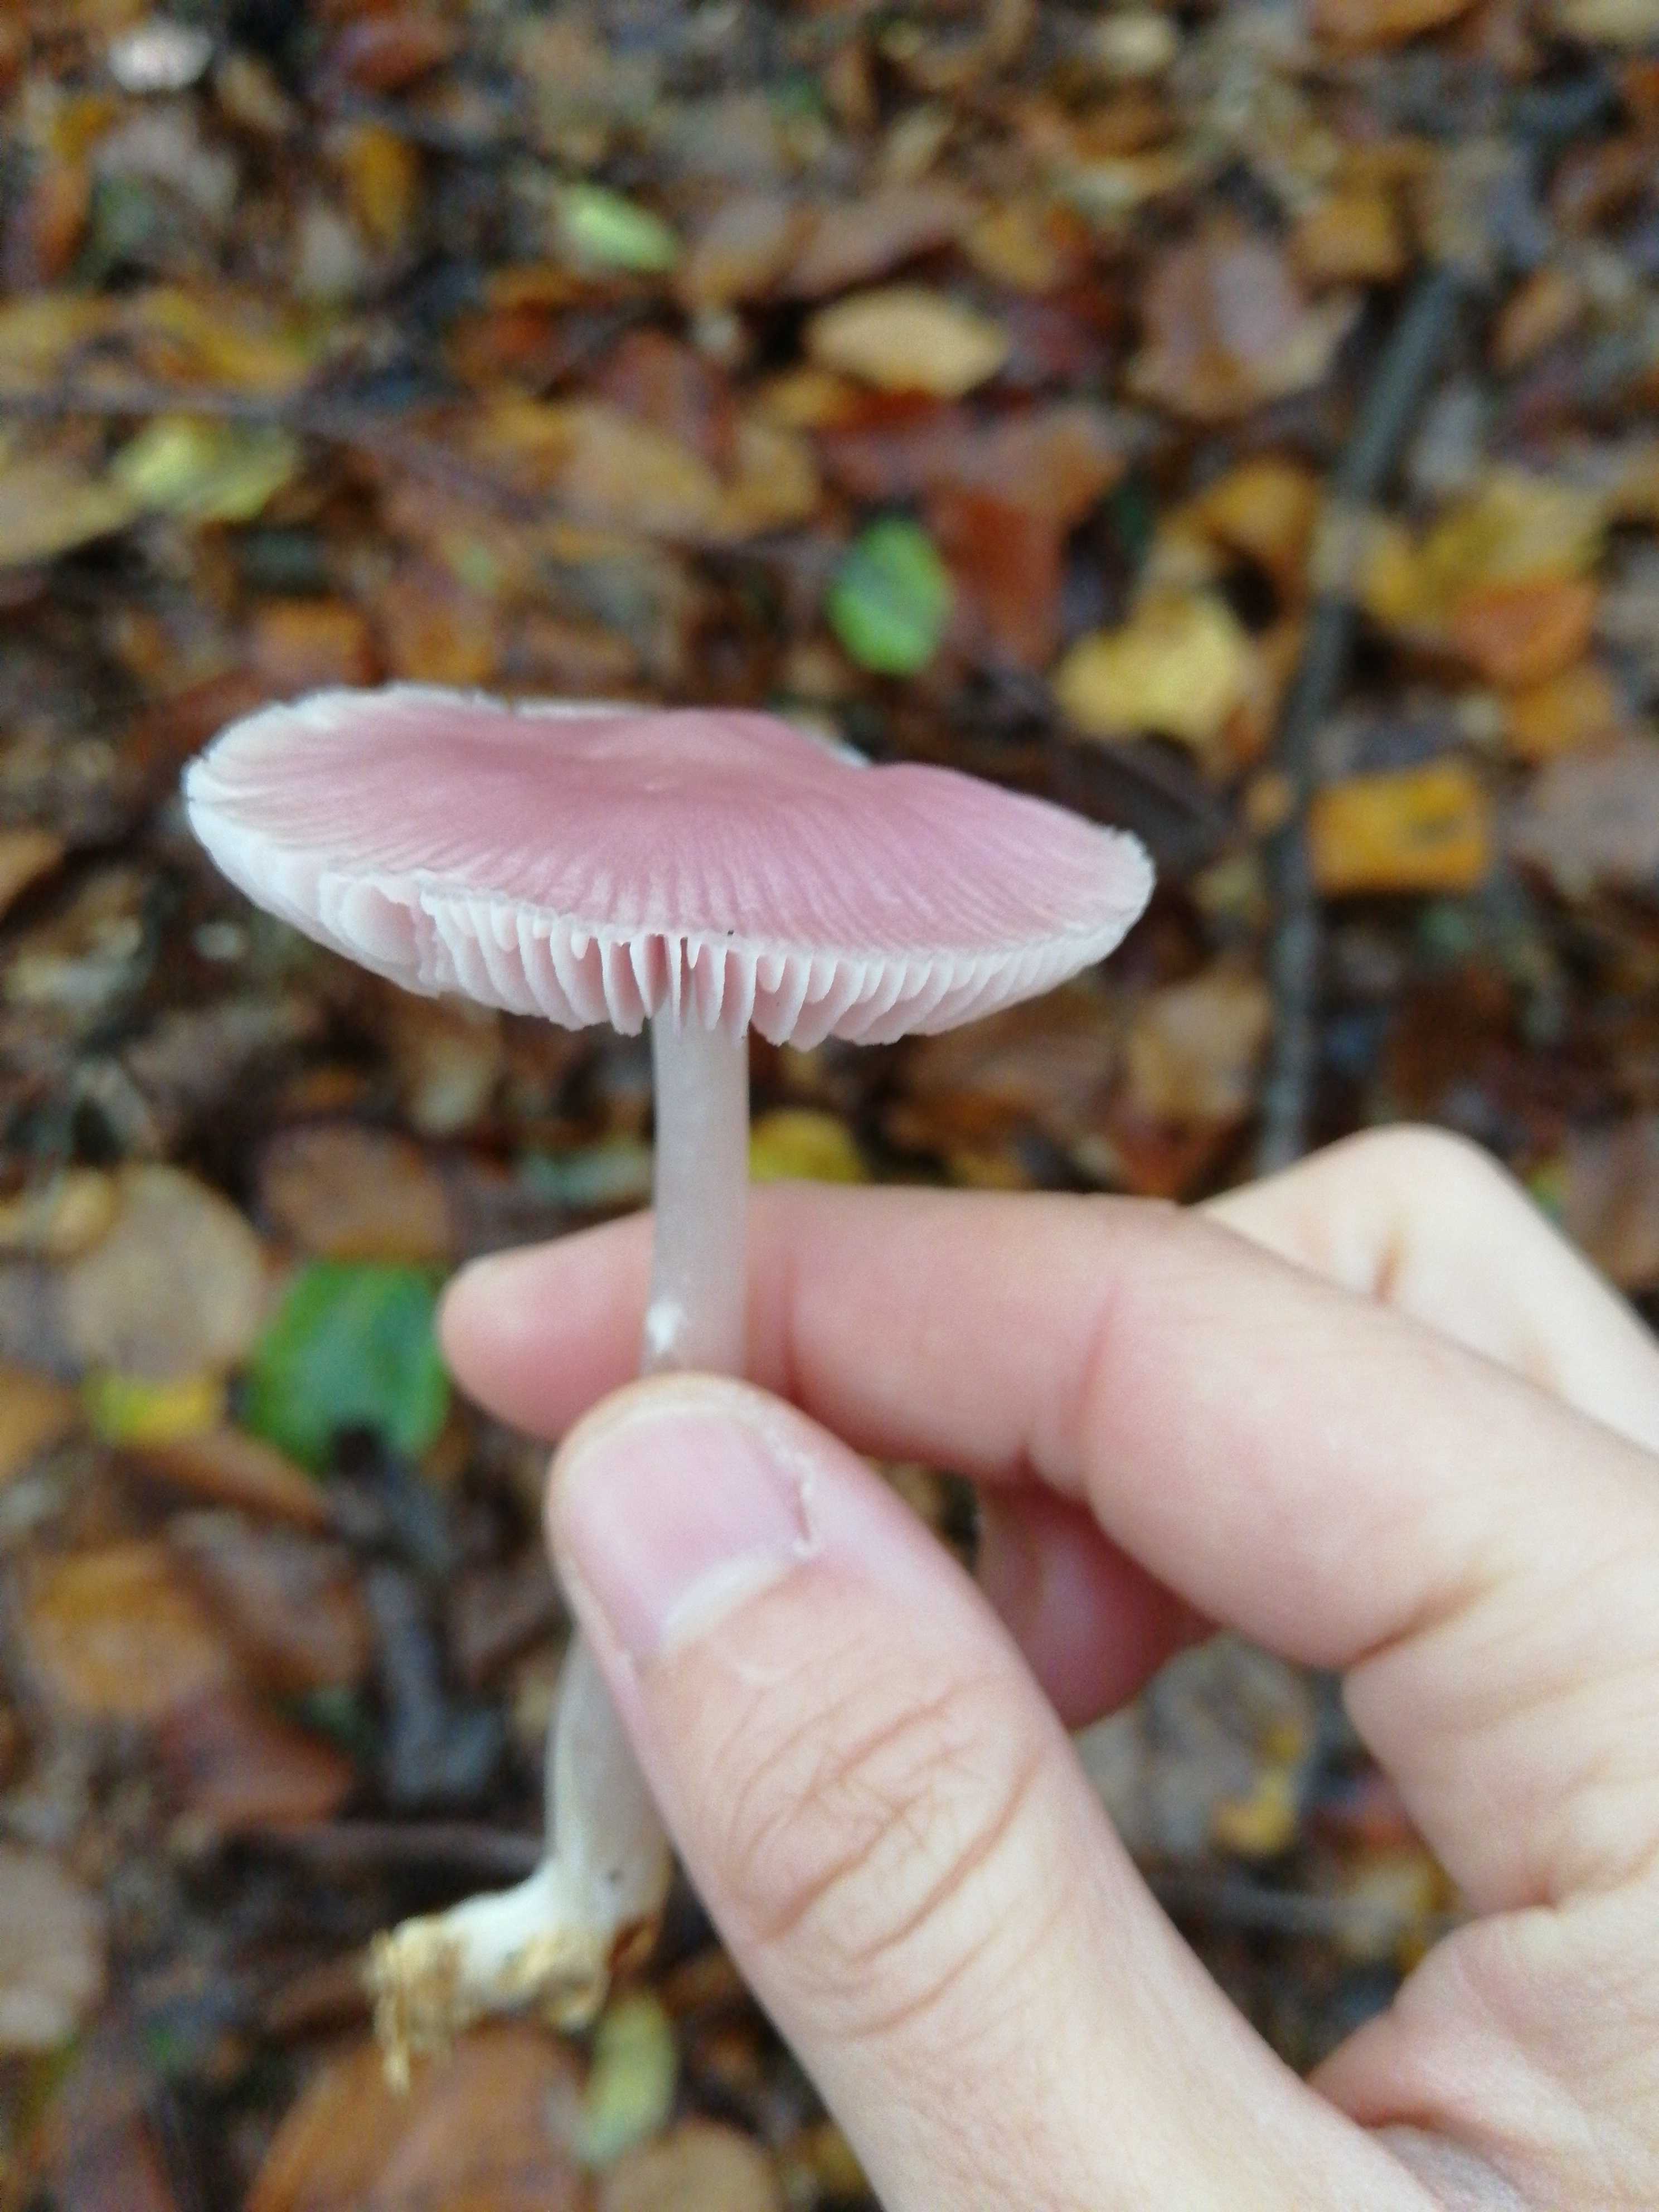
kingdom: Fungi
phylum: Basidiomycota
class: Agaricomycetes
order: Agaricales
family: Mycenaceae
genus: Mycena
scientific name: Mycena rosea
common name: rosa huesvamp
